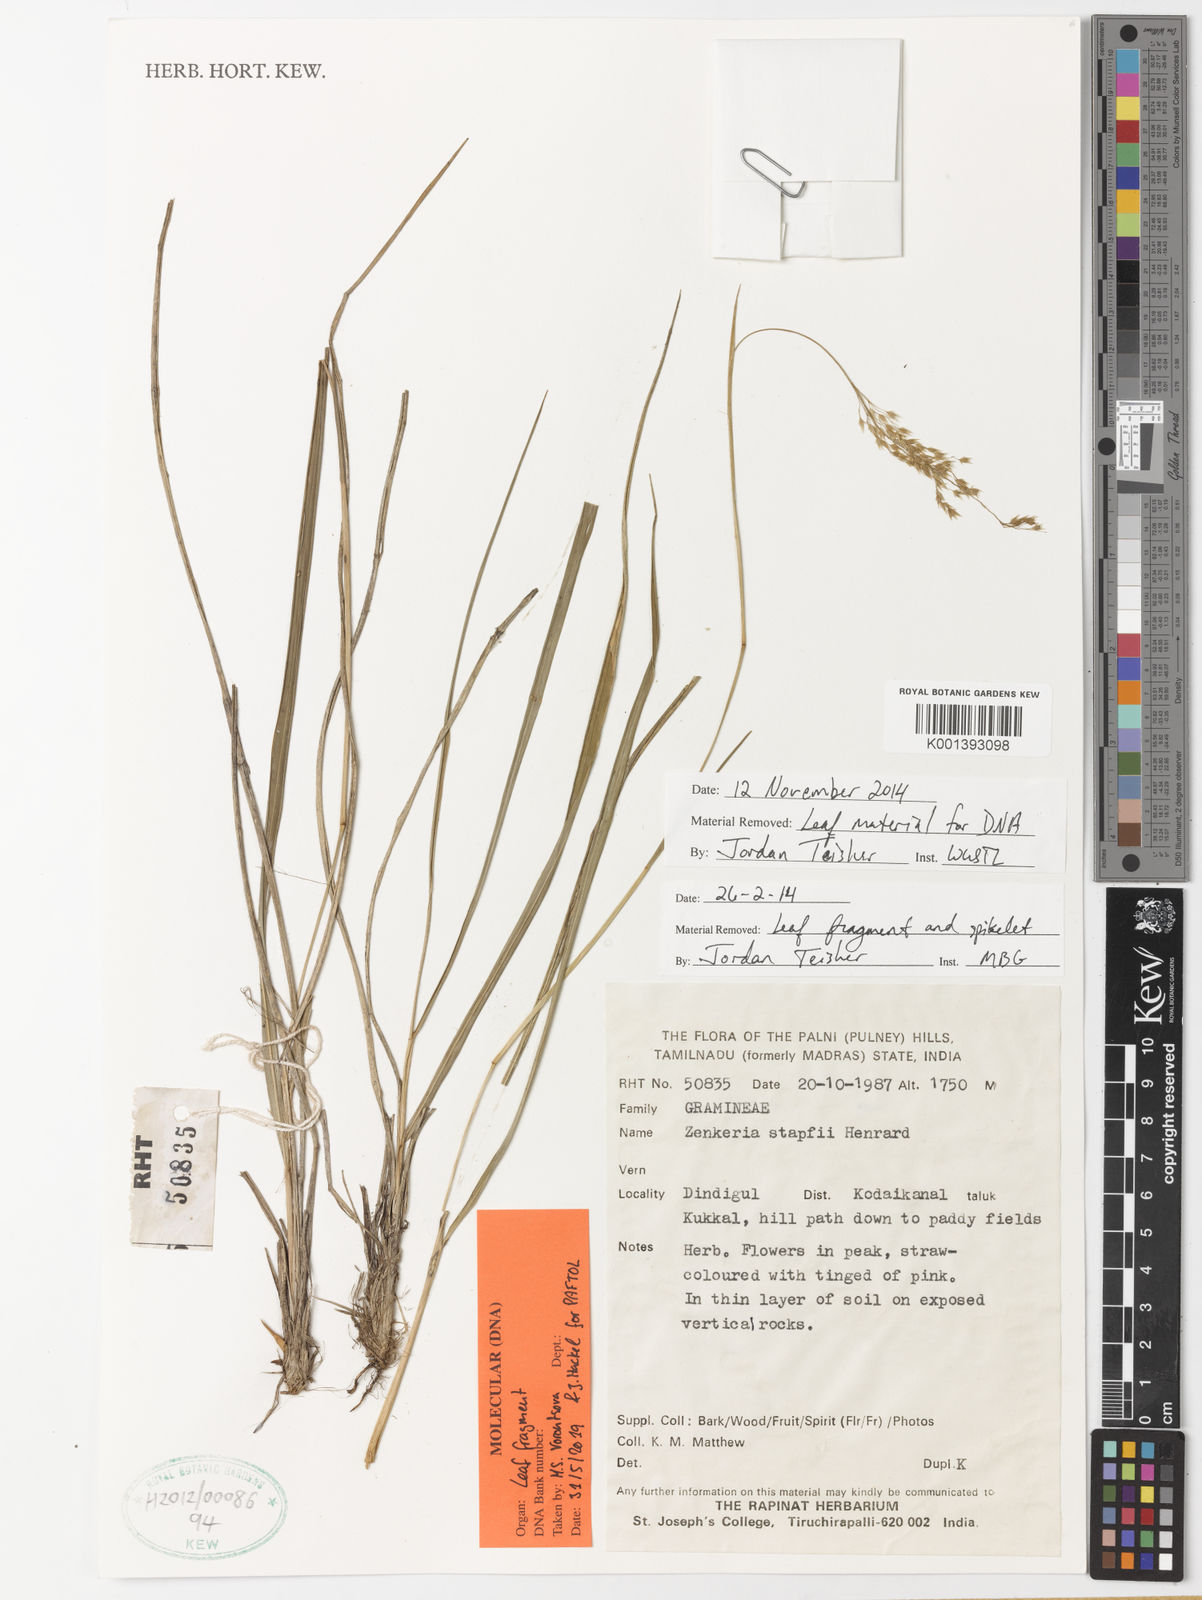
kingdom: Plantae
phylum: Tracheophyta
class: Liliopsida
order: Poales
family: Poaceae
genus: Zenkeria
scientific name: Zenkeria stapfii
